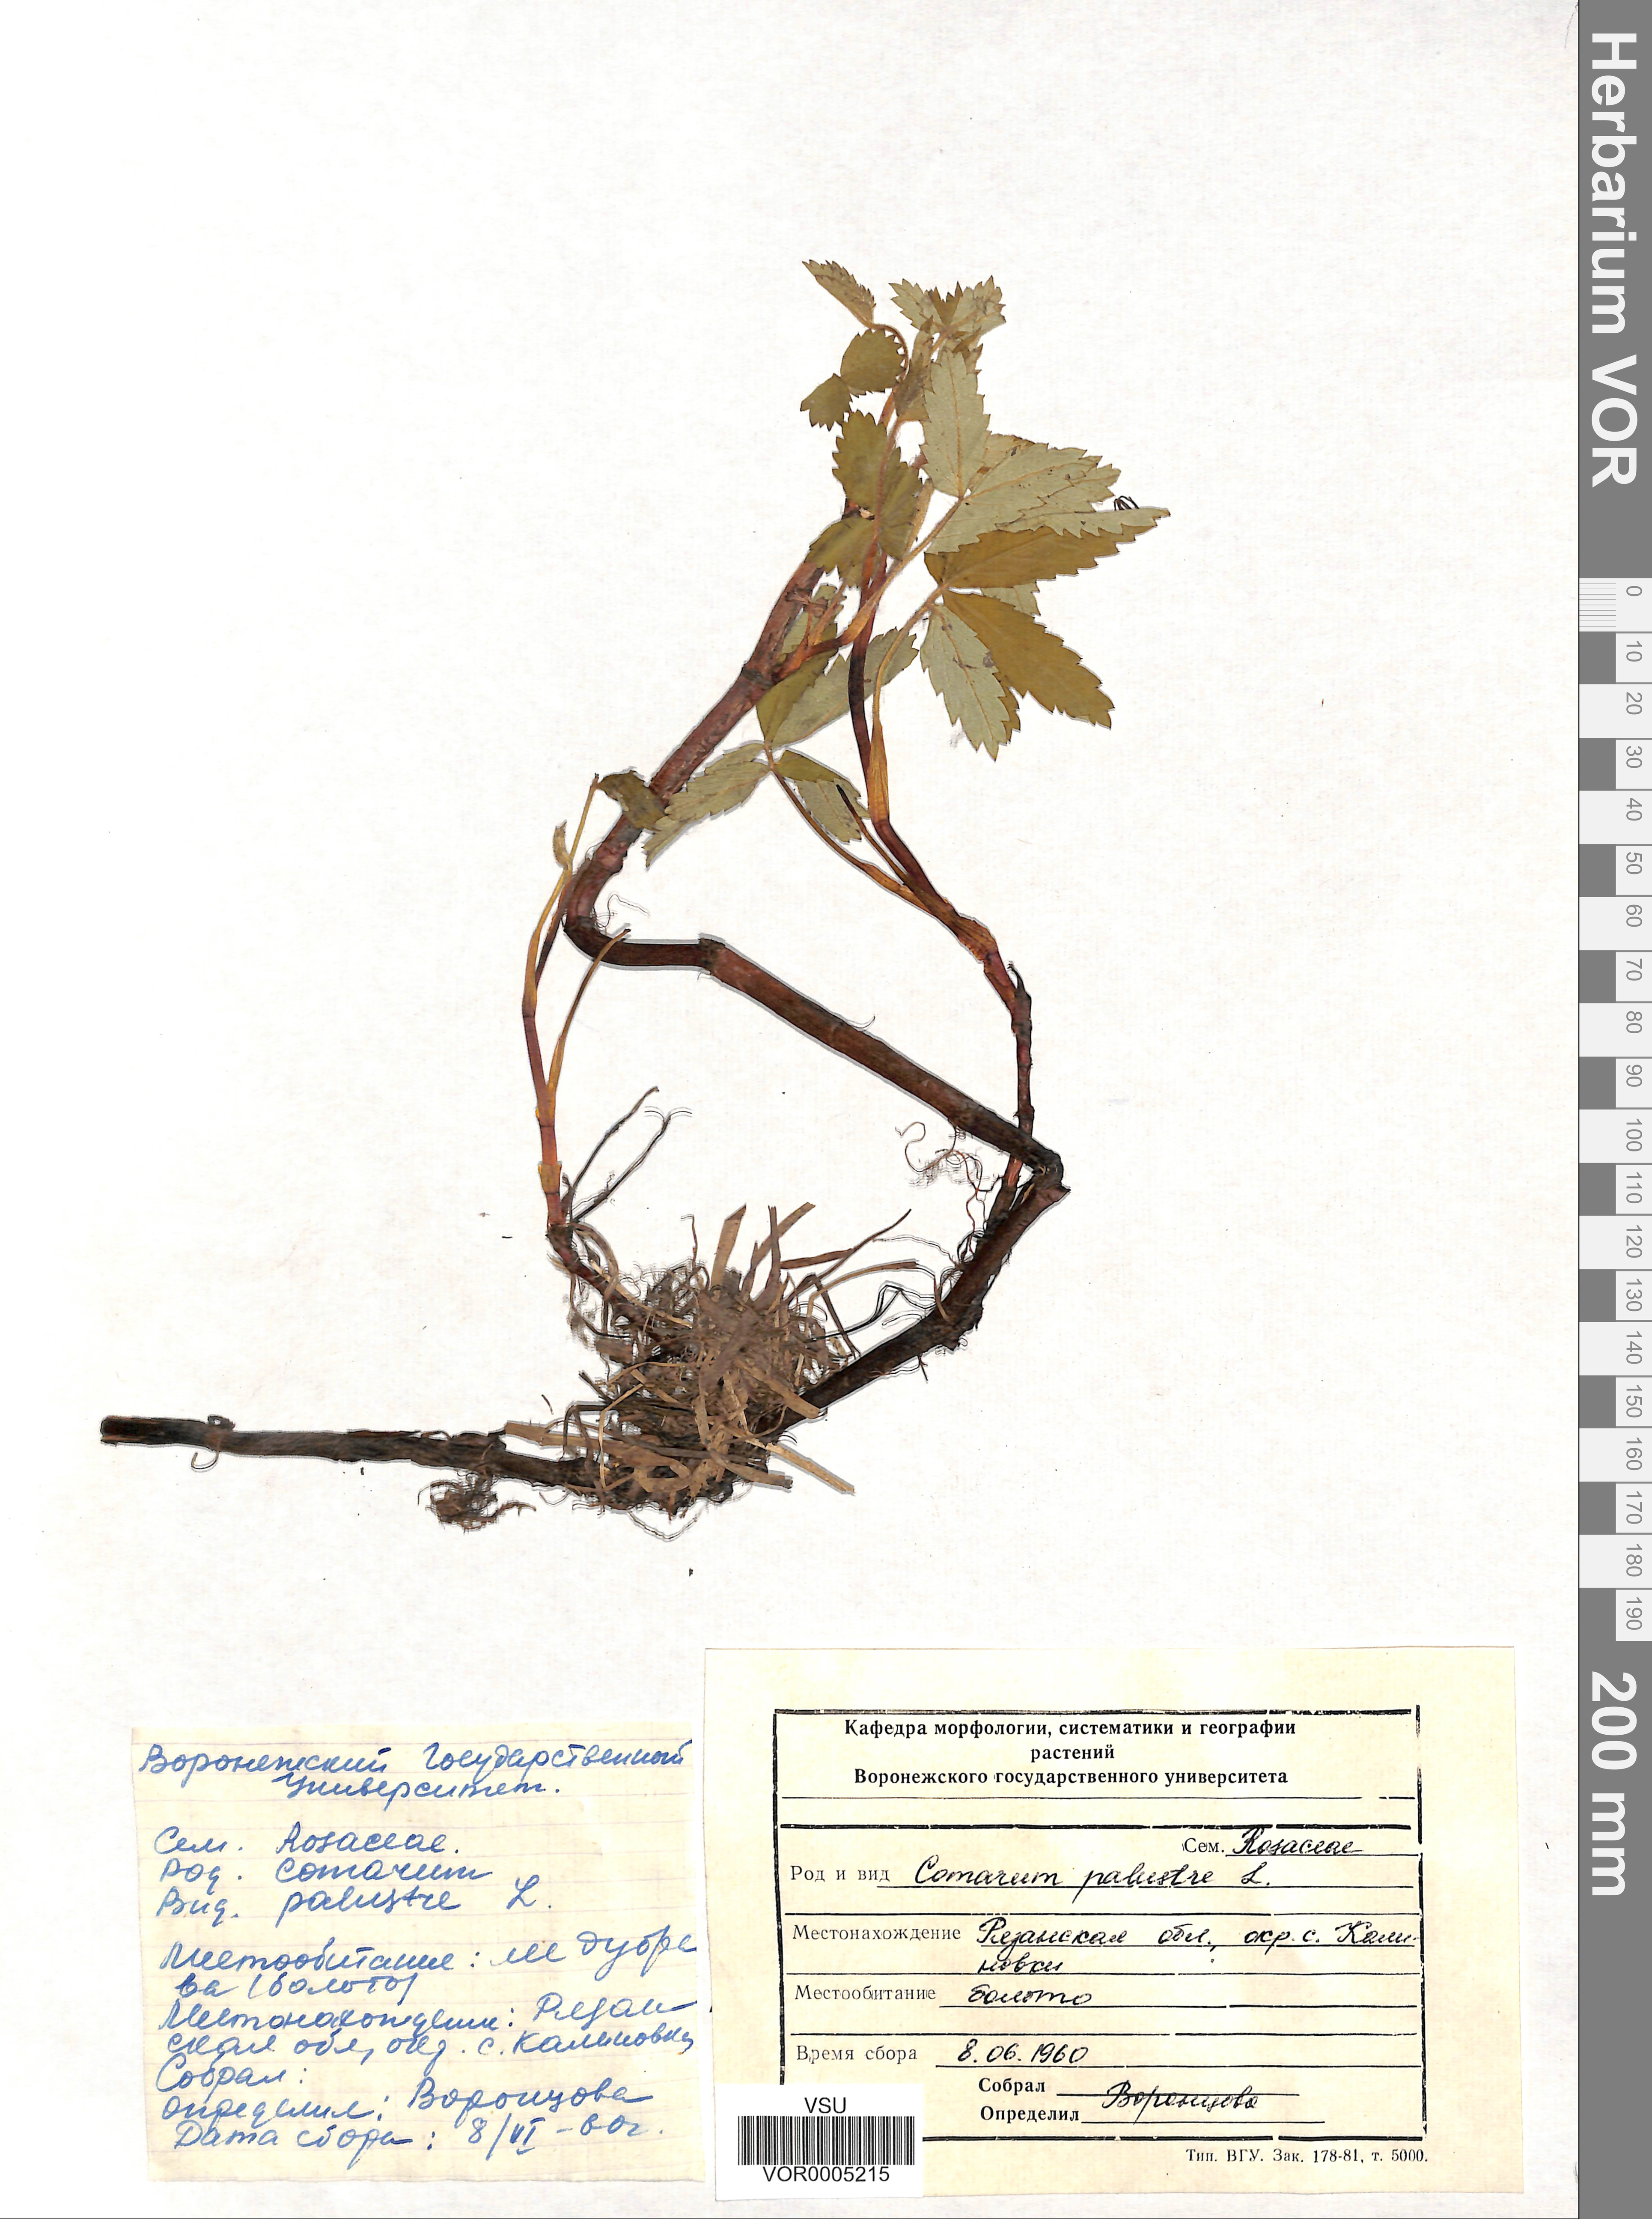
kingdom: Plantae
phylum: Tracheophyta
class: Magnoliopsida
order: Rosales
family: Rosaceae
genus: Comarum
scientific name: Comarum palustre
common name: Marsh cinquefoil
